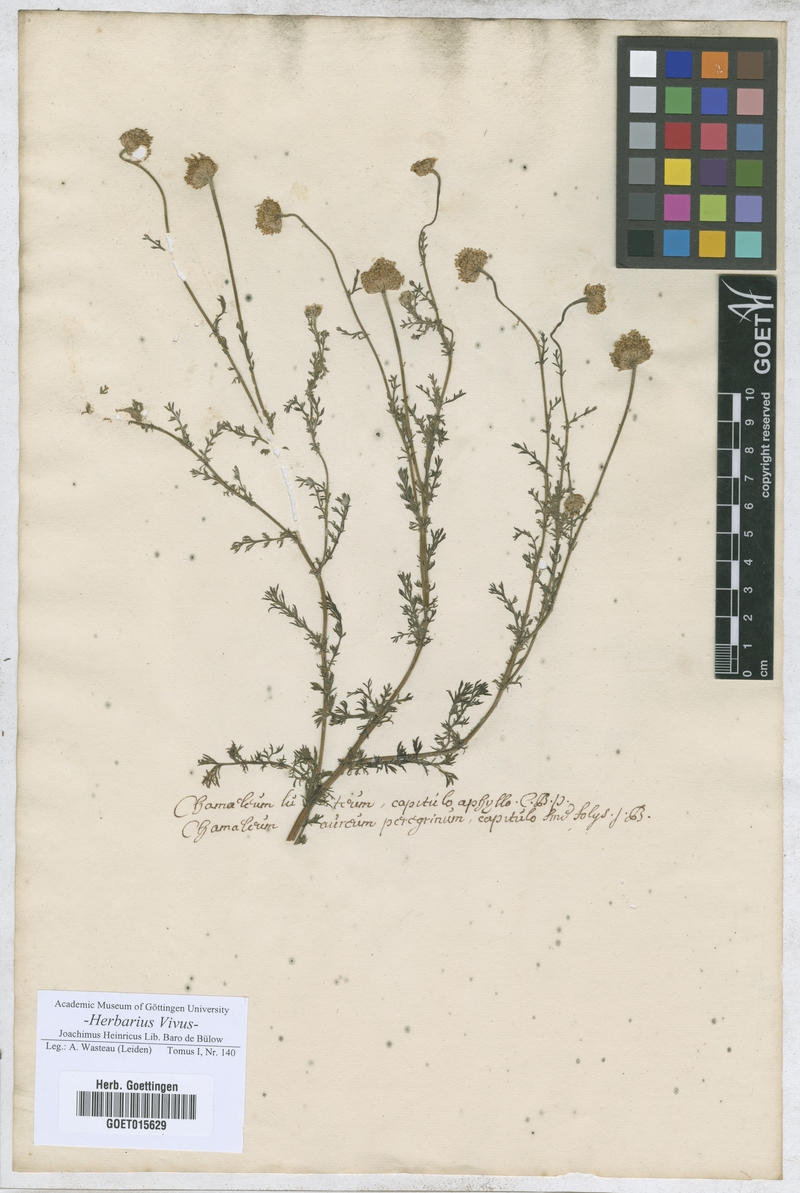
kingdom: Plantae
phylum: Tracheophyta
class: Magnoliopsida
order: Asterales
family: Asteraceae
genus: Chamaemelum
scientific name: Chamaemelum
